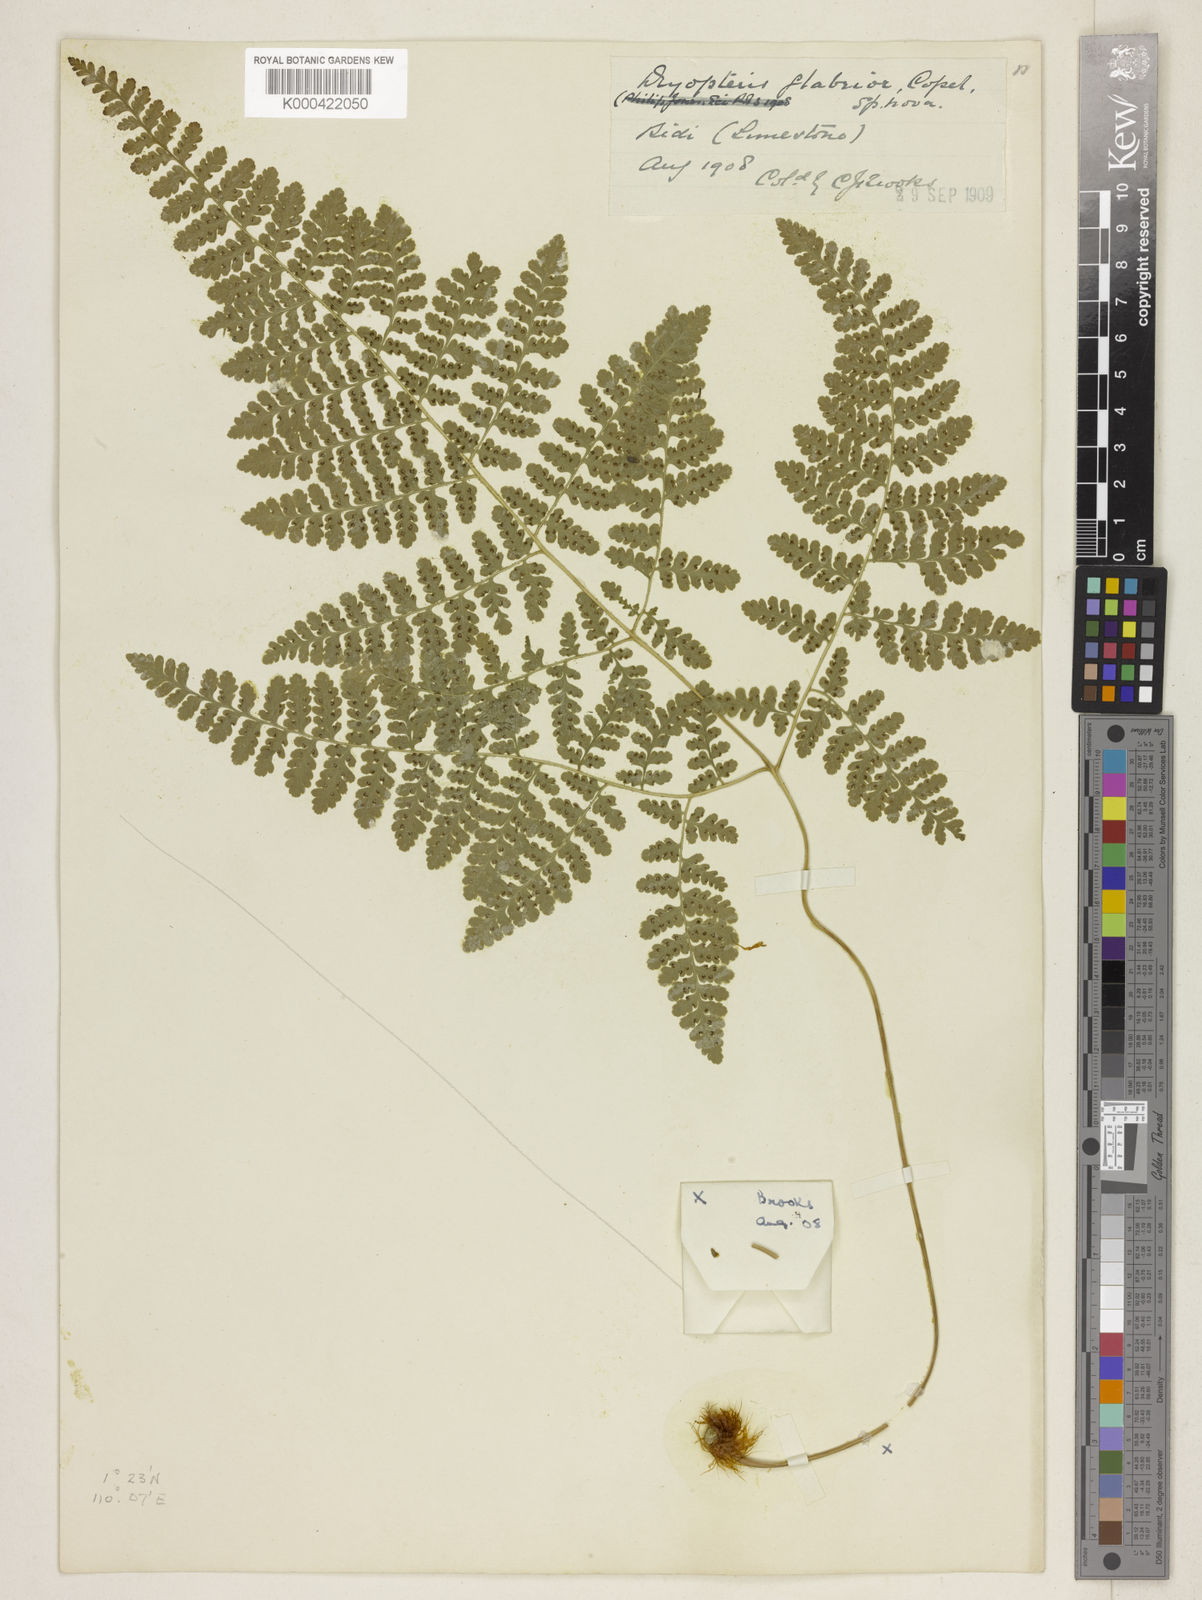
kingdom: Plantae
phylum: Tracheophyta
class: Polypodiopsida
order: Polypodiales
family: Hypodematiaceae
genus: Hypodematium
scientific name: Hypodematium
